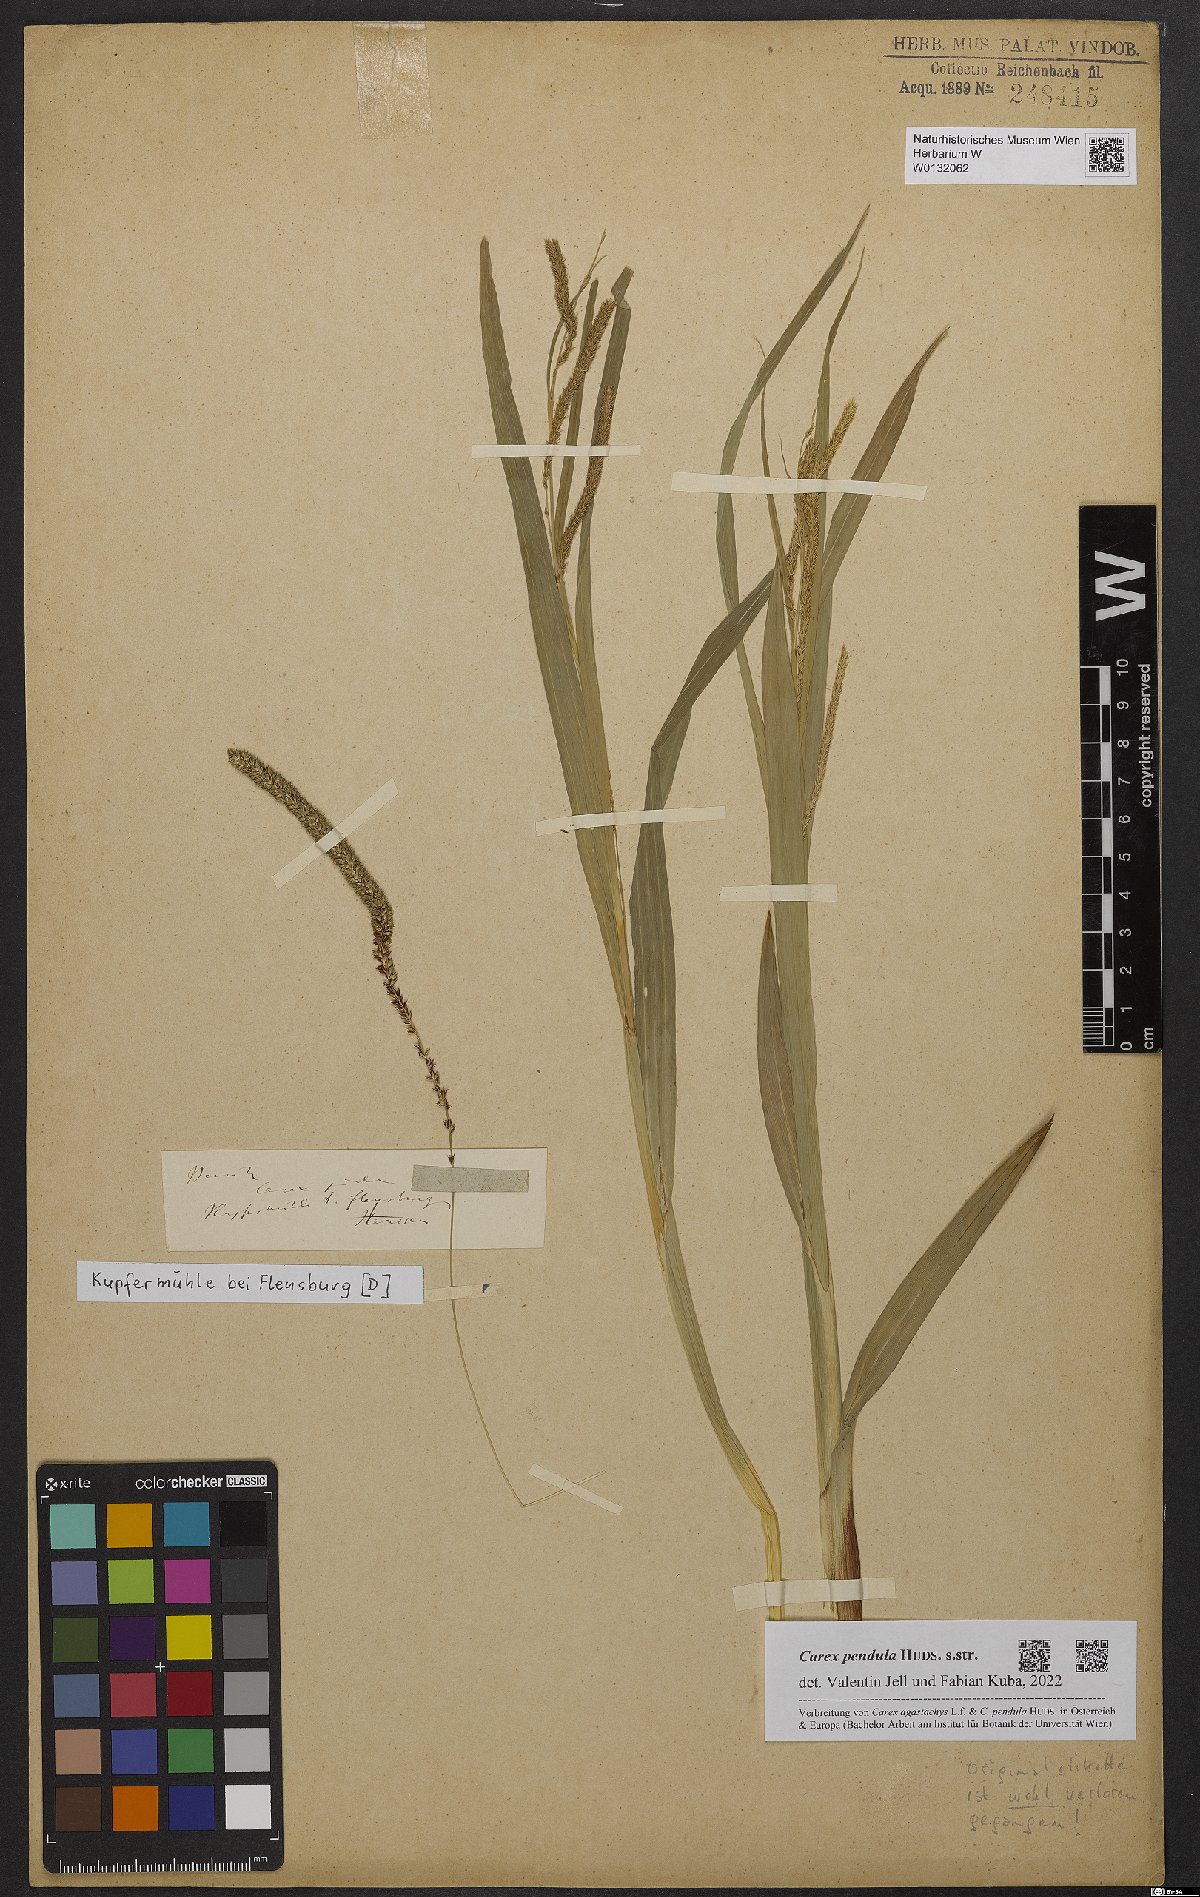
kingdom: Plantae
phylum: Tracheophyta
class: Liliopsida
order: Poales
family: Cyperaceae
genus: Carex
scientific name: Carex pendula
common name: Pendulous sedge
